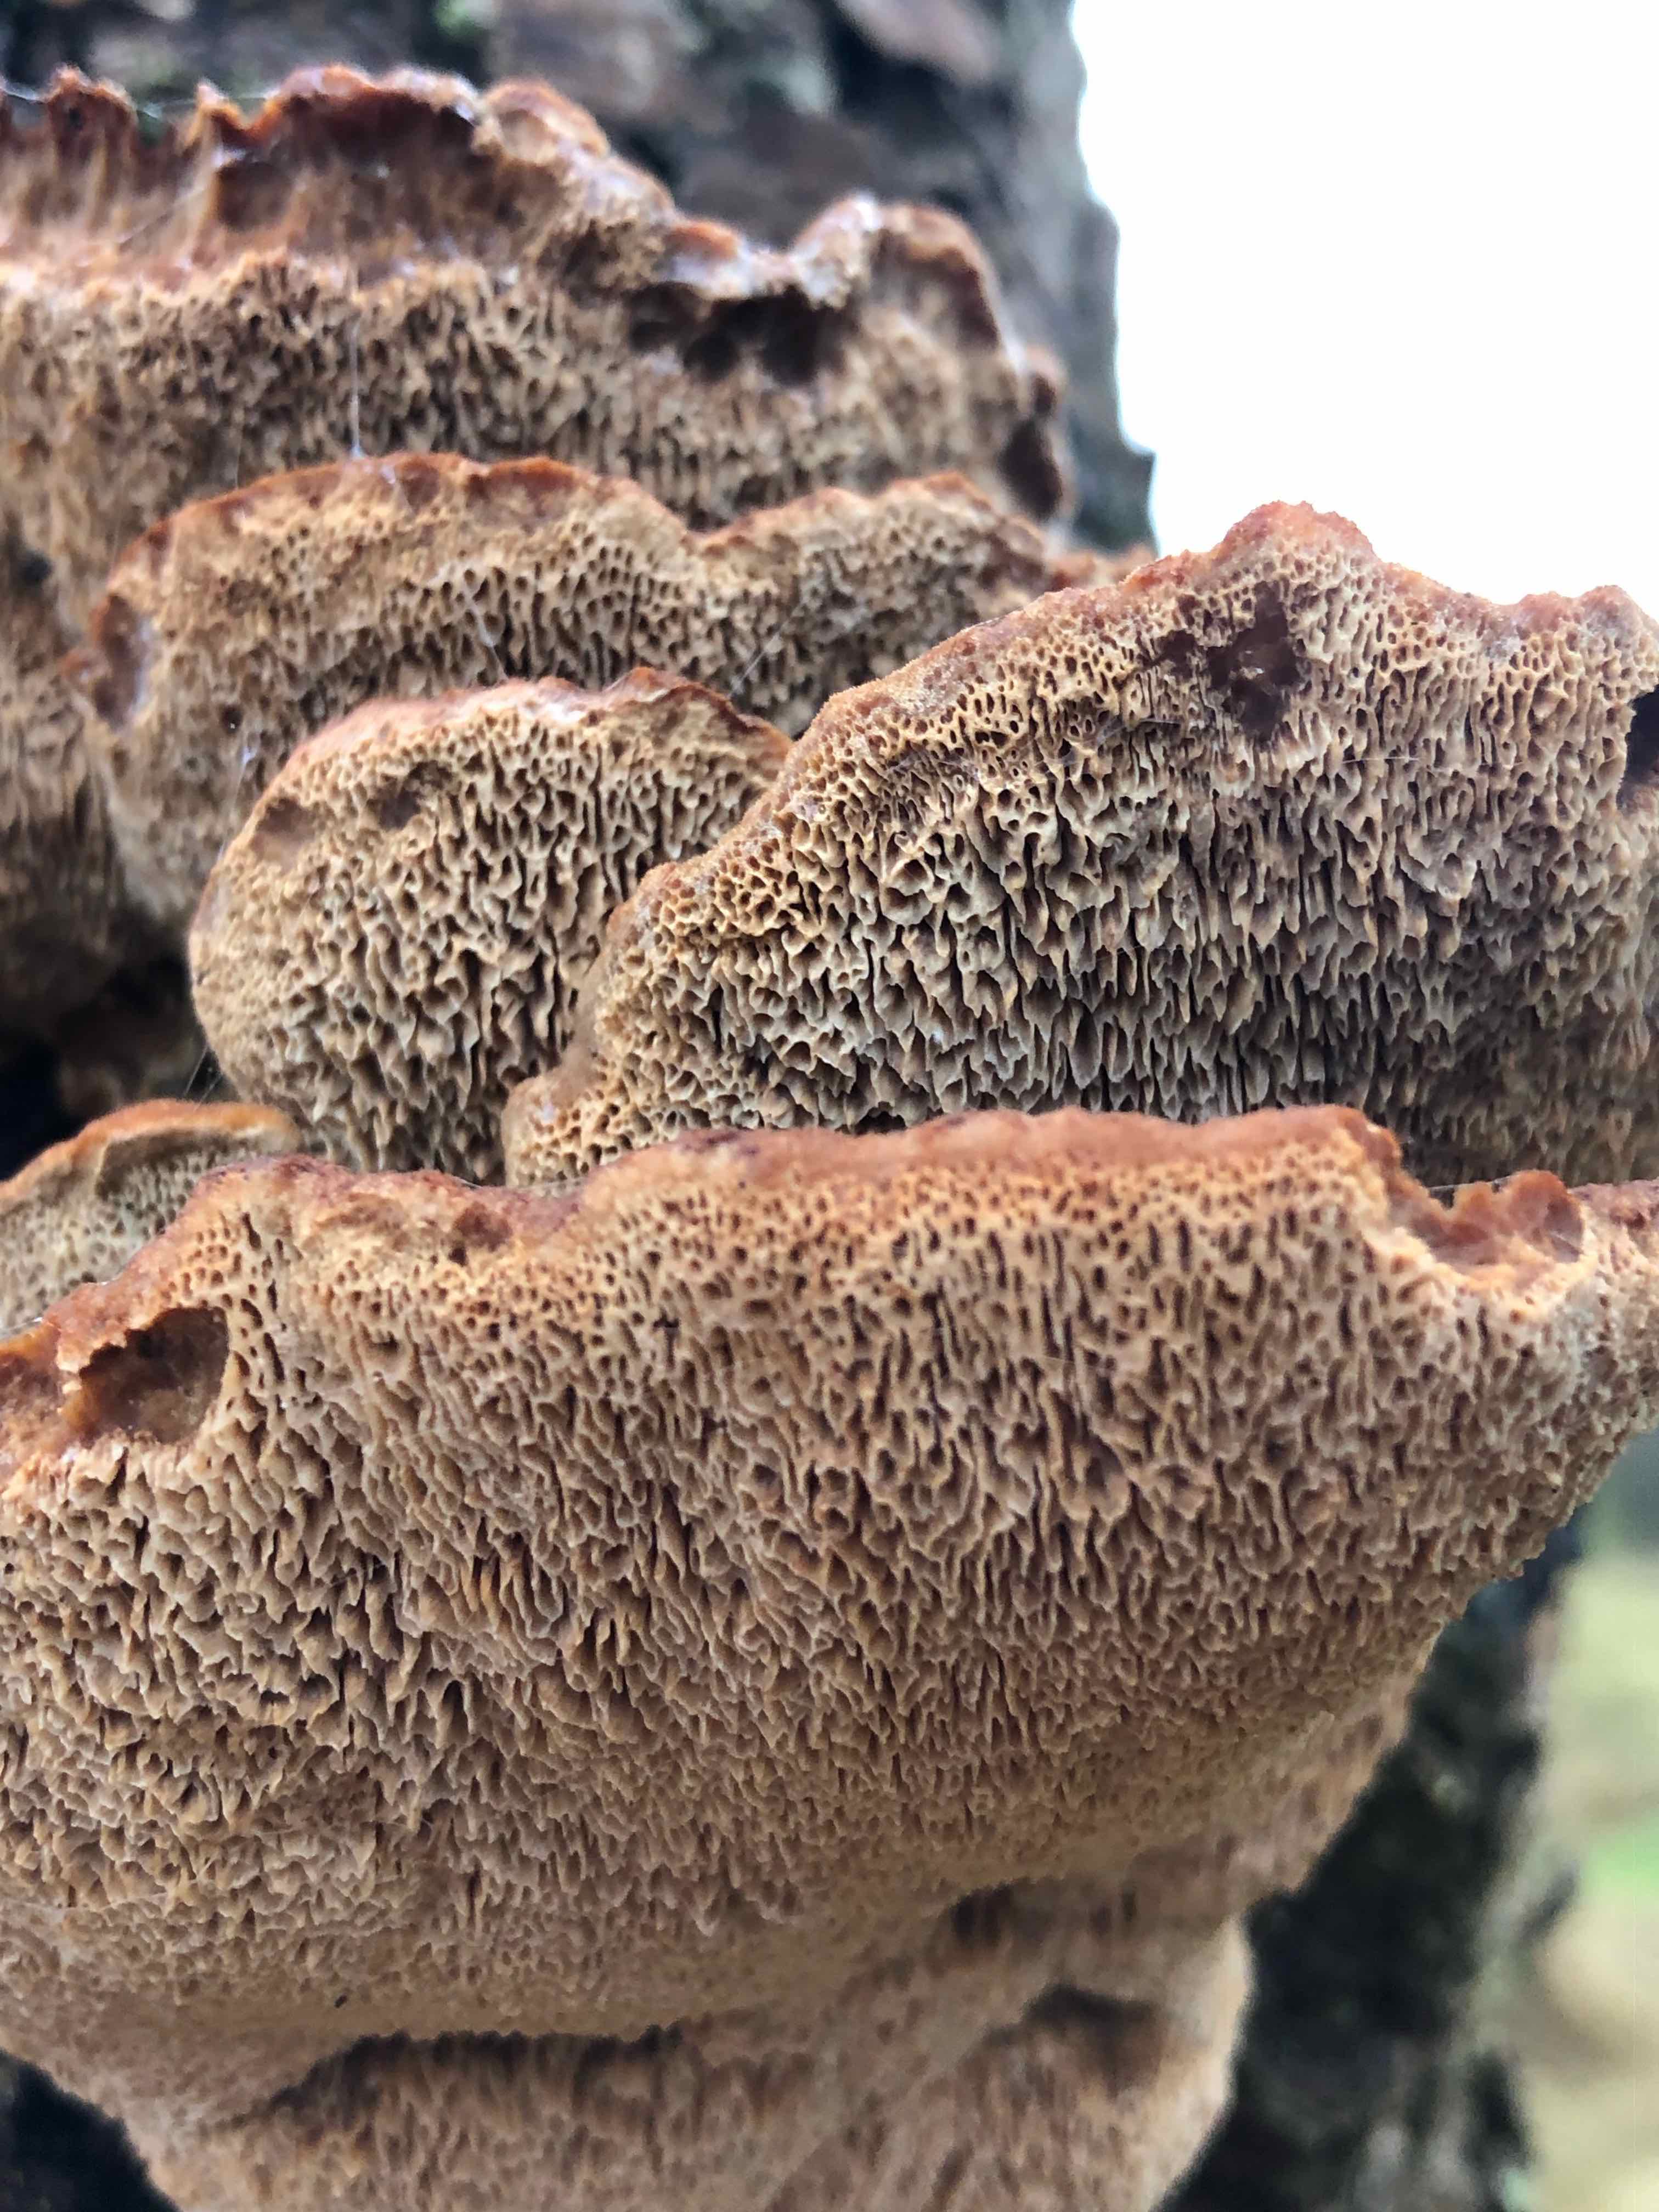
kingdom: Fungi
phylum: Basidiomycota
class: Agaricomycetes
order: Polyporales
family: Ischnodermataceae
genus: Ischnoderma
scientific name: Ischnoderma benzoinum
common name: gran-tjæreporesvamp
